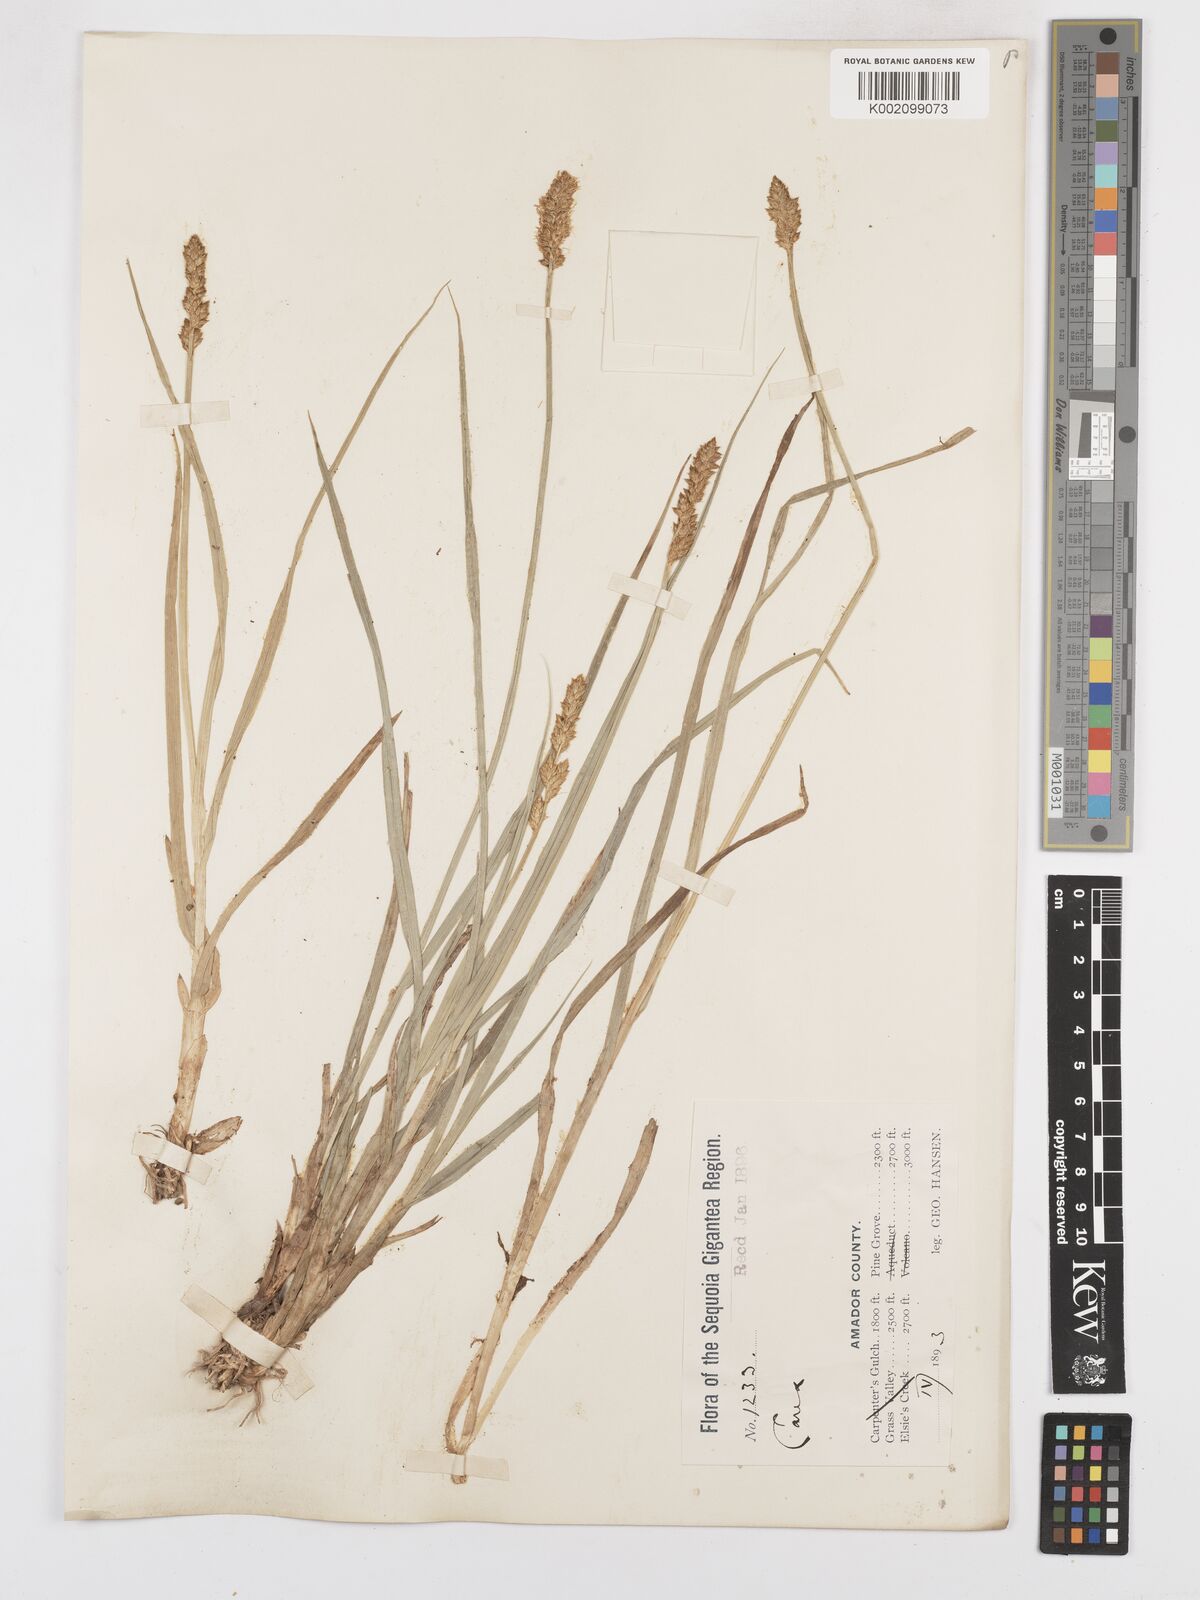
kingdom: Plantae
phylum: Tracheophyta
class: Liliopsida
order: Poales
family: Cyperaceae
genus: Carex
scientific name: Carex diandra
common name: Lesser tussock-sedge
